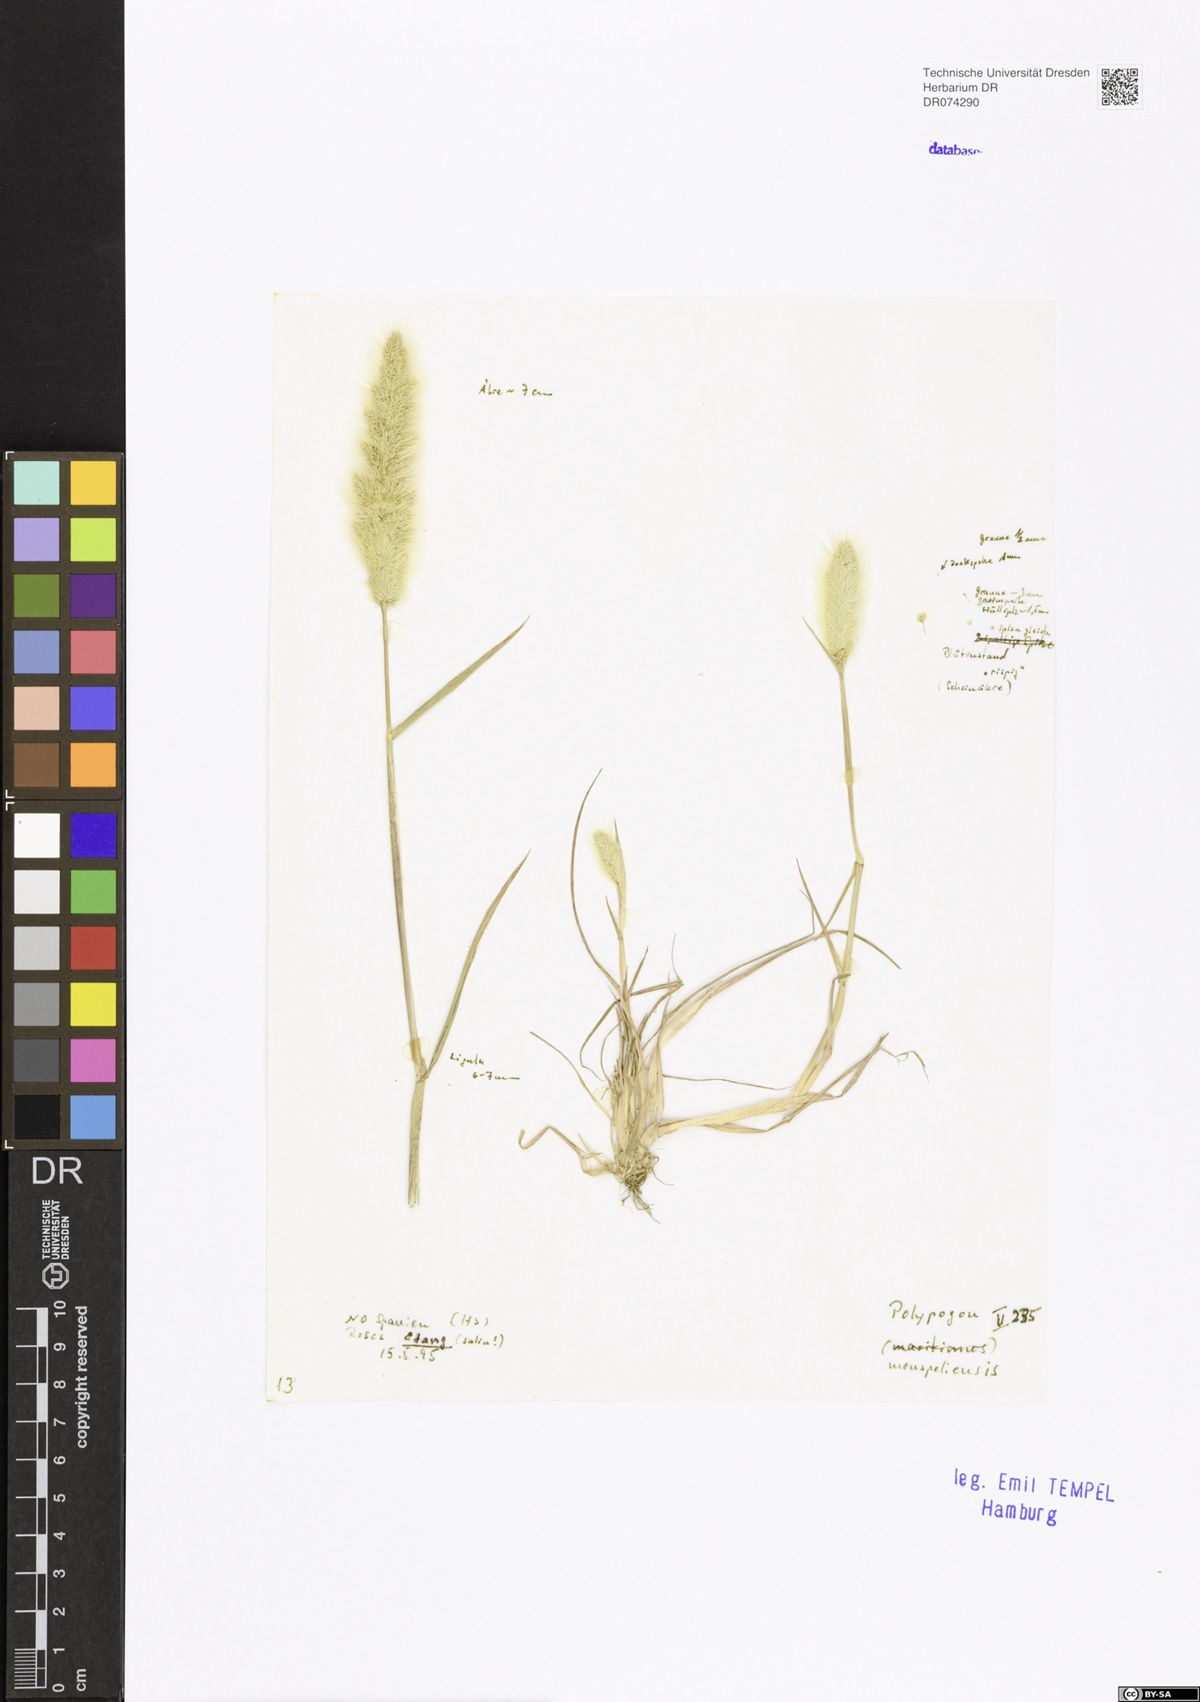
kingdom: Plantae
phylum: Tracheophyta
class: Liliopsida
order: Poales
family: Poaceae
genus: Polypogon
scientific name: Polypogon monspeliensis
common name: Annual rabbitsfoot grass
